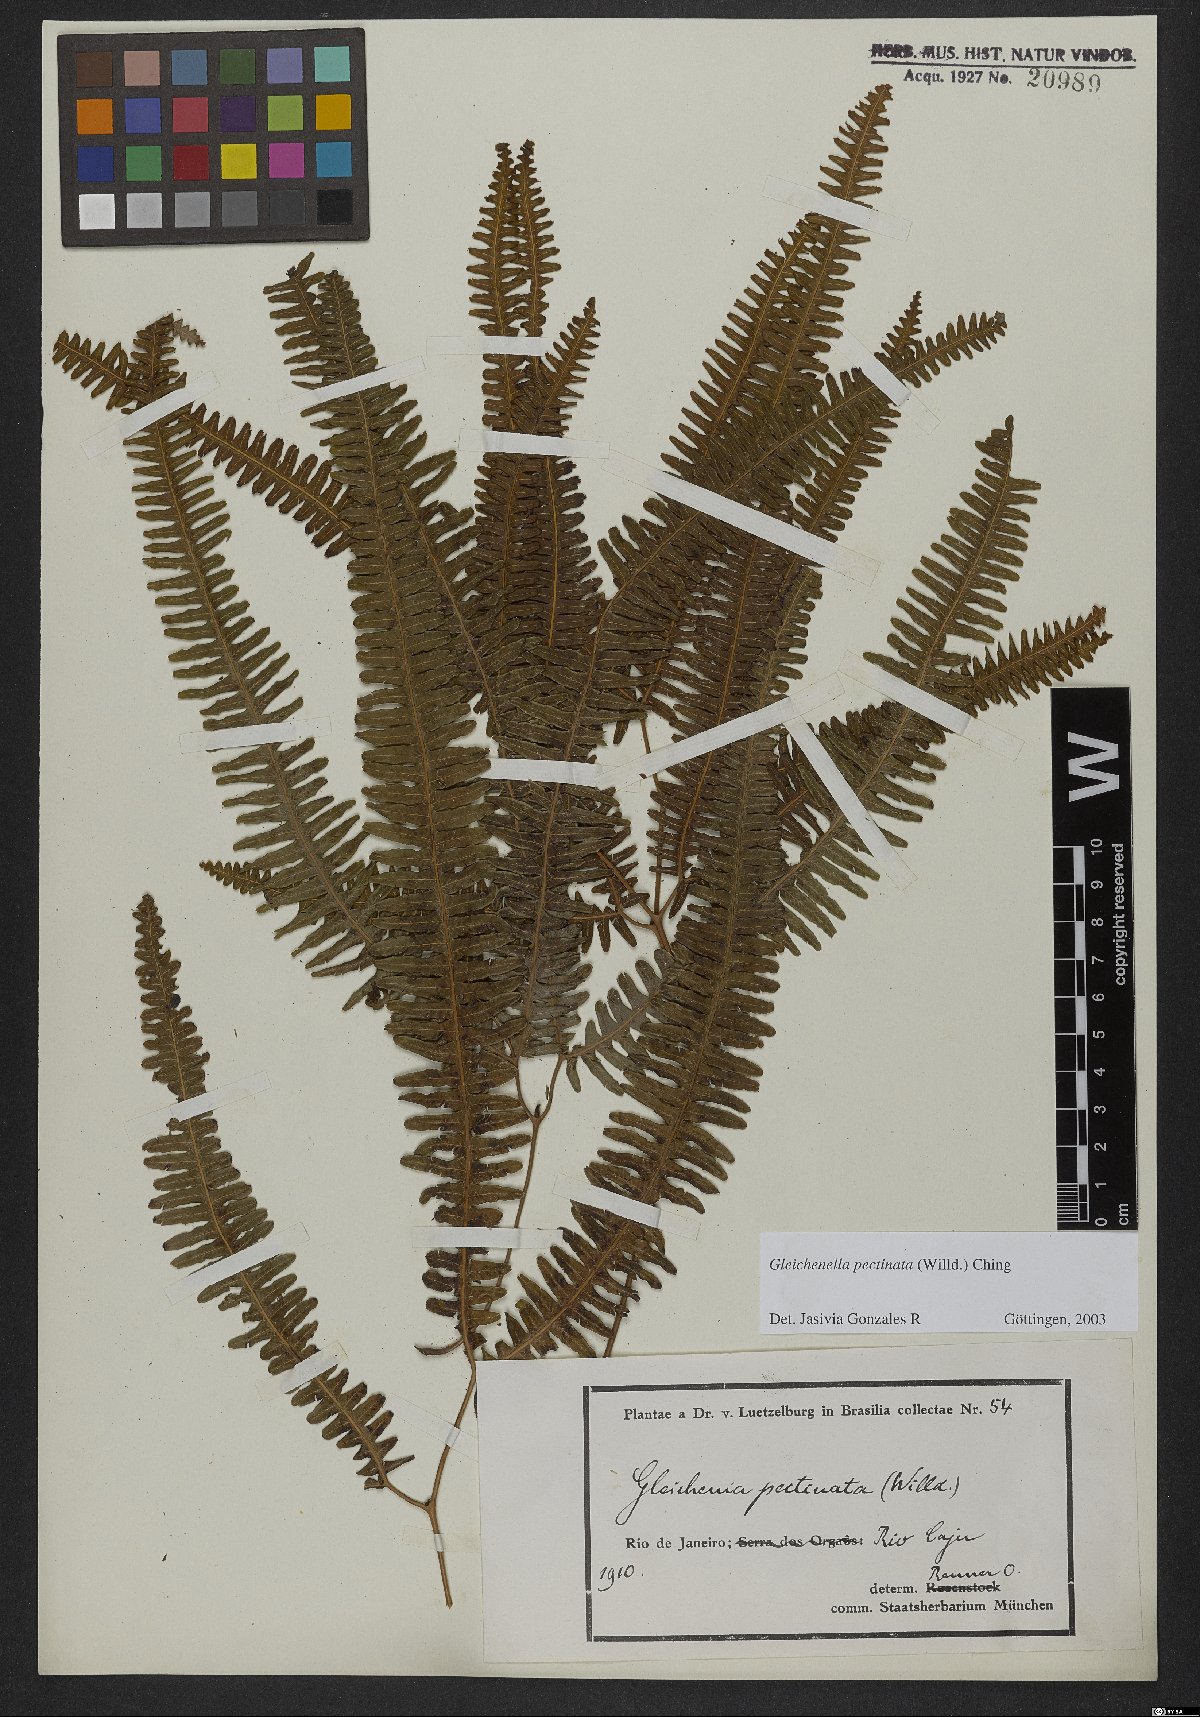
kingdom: Plantae
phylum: Tracheophyta
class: Polypodiopsida
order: Gleicheniales
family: Gleicheniaceae
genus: Gleichenella
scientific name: Gleichenella pectinata
